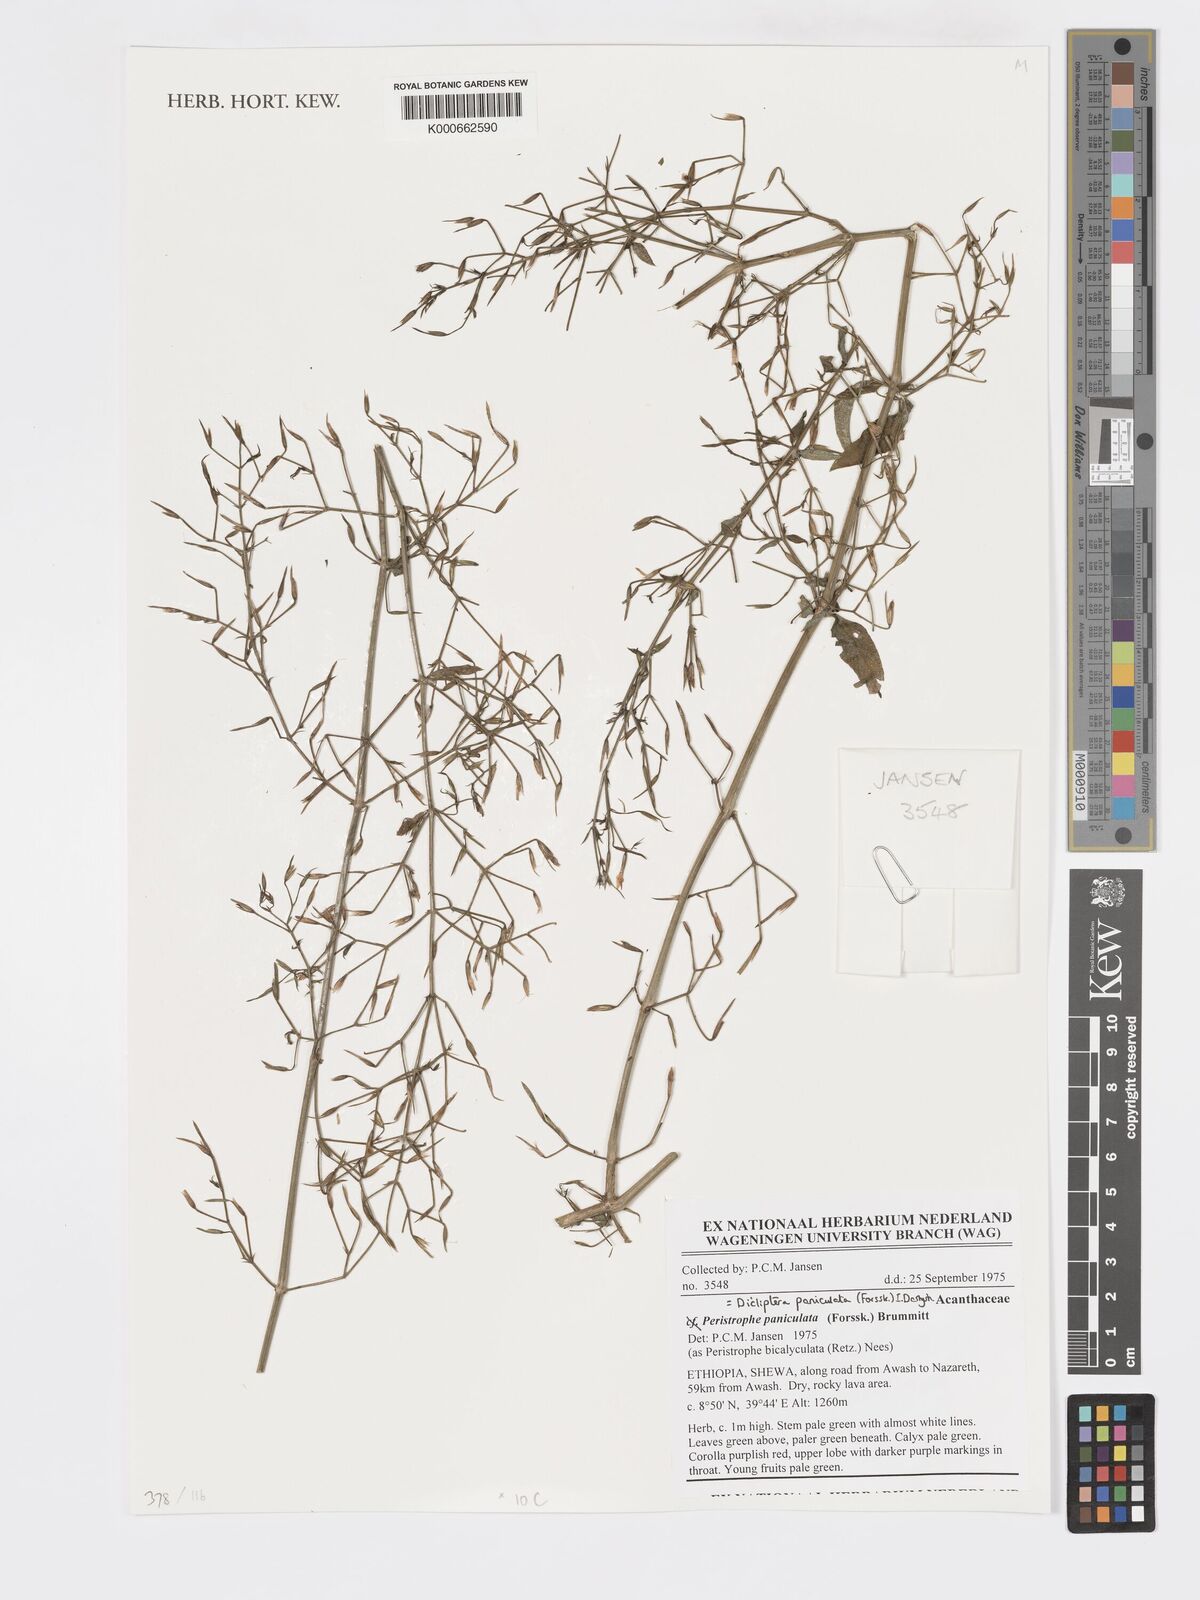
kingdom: Plantae
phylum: Tracheophyta
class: Magnoliopsida
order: Lamiales
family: Acanthaceae
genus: Dicliptera
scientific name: Dicliptera paniculata
